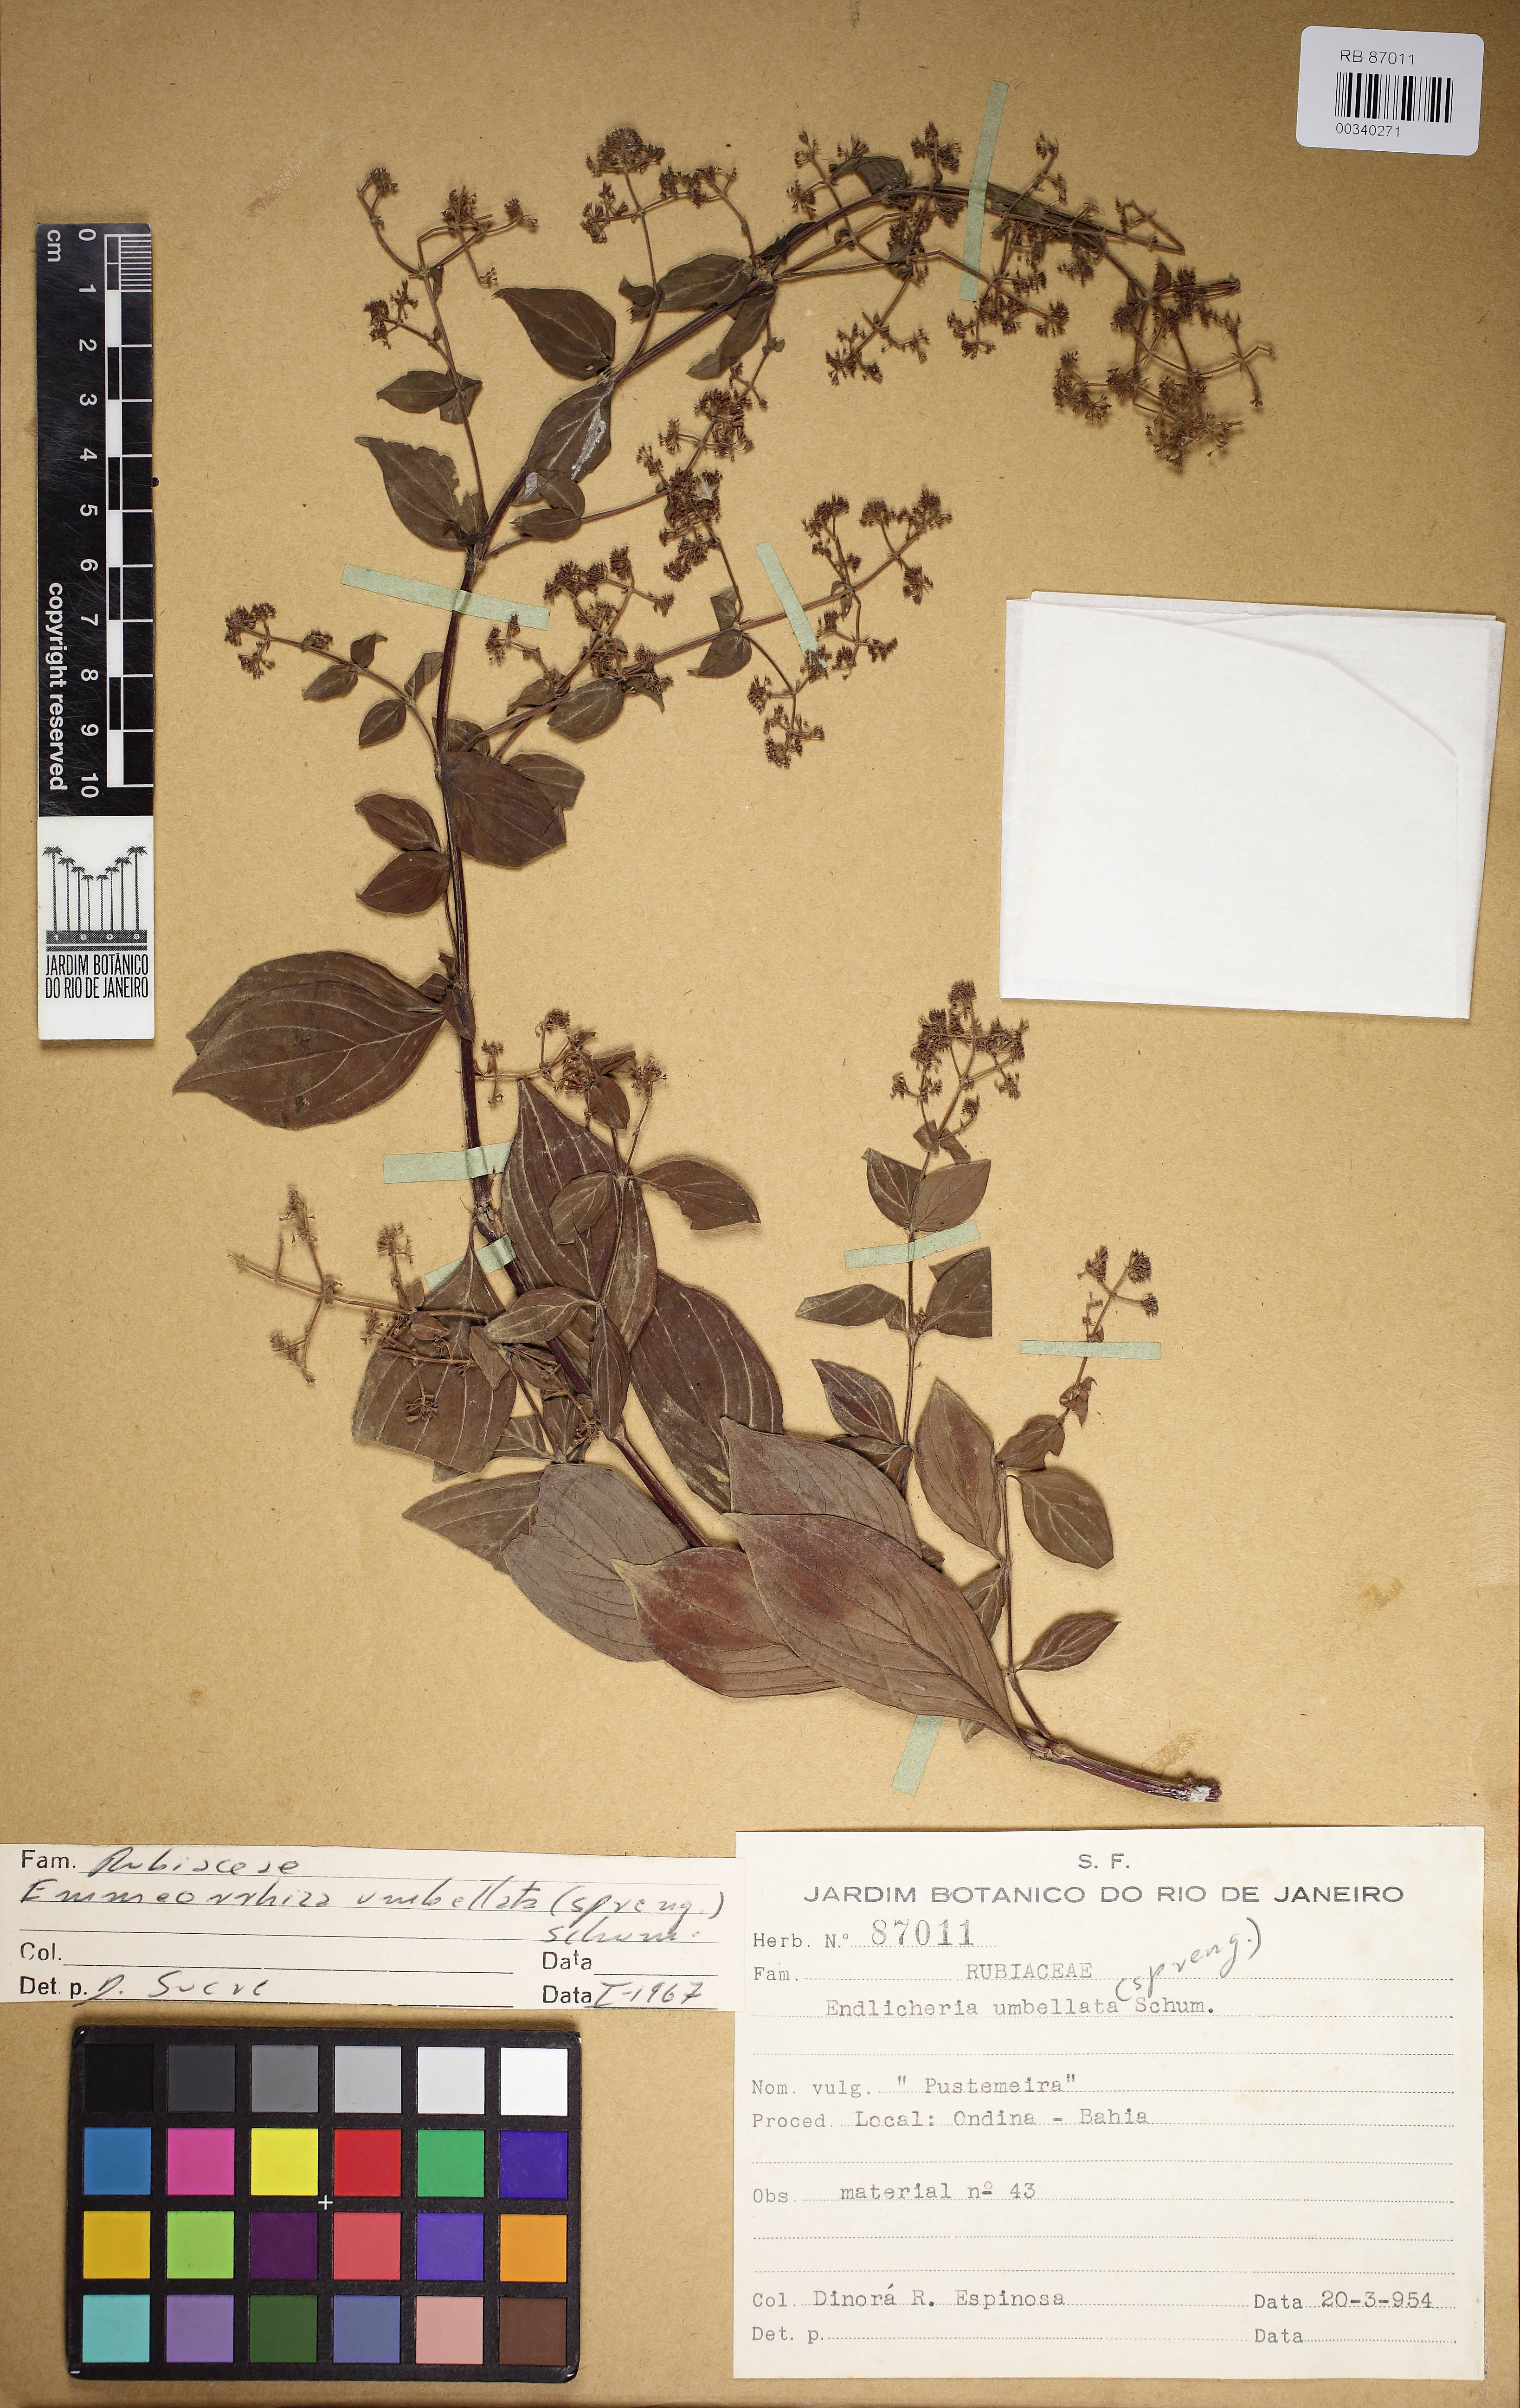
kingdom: Plantae
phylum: Tracheophyta
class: Magnoliopsida
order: Gentianales
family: Rubiaceae
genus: Emmeorhiza
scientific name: Emmeorhiza umbellata
